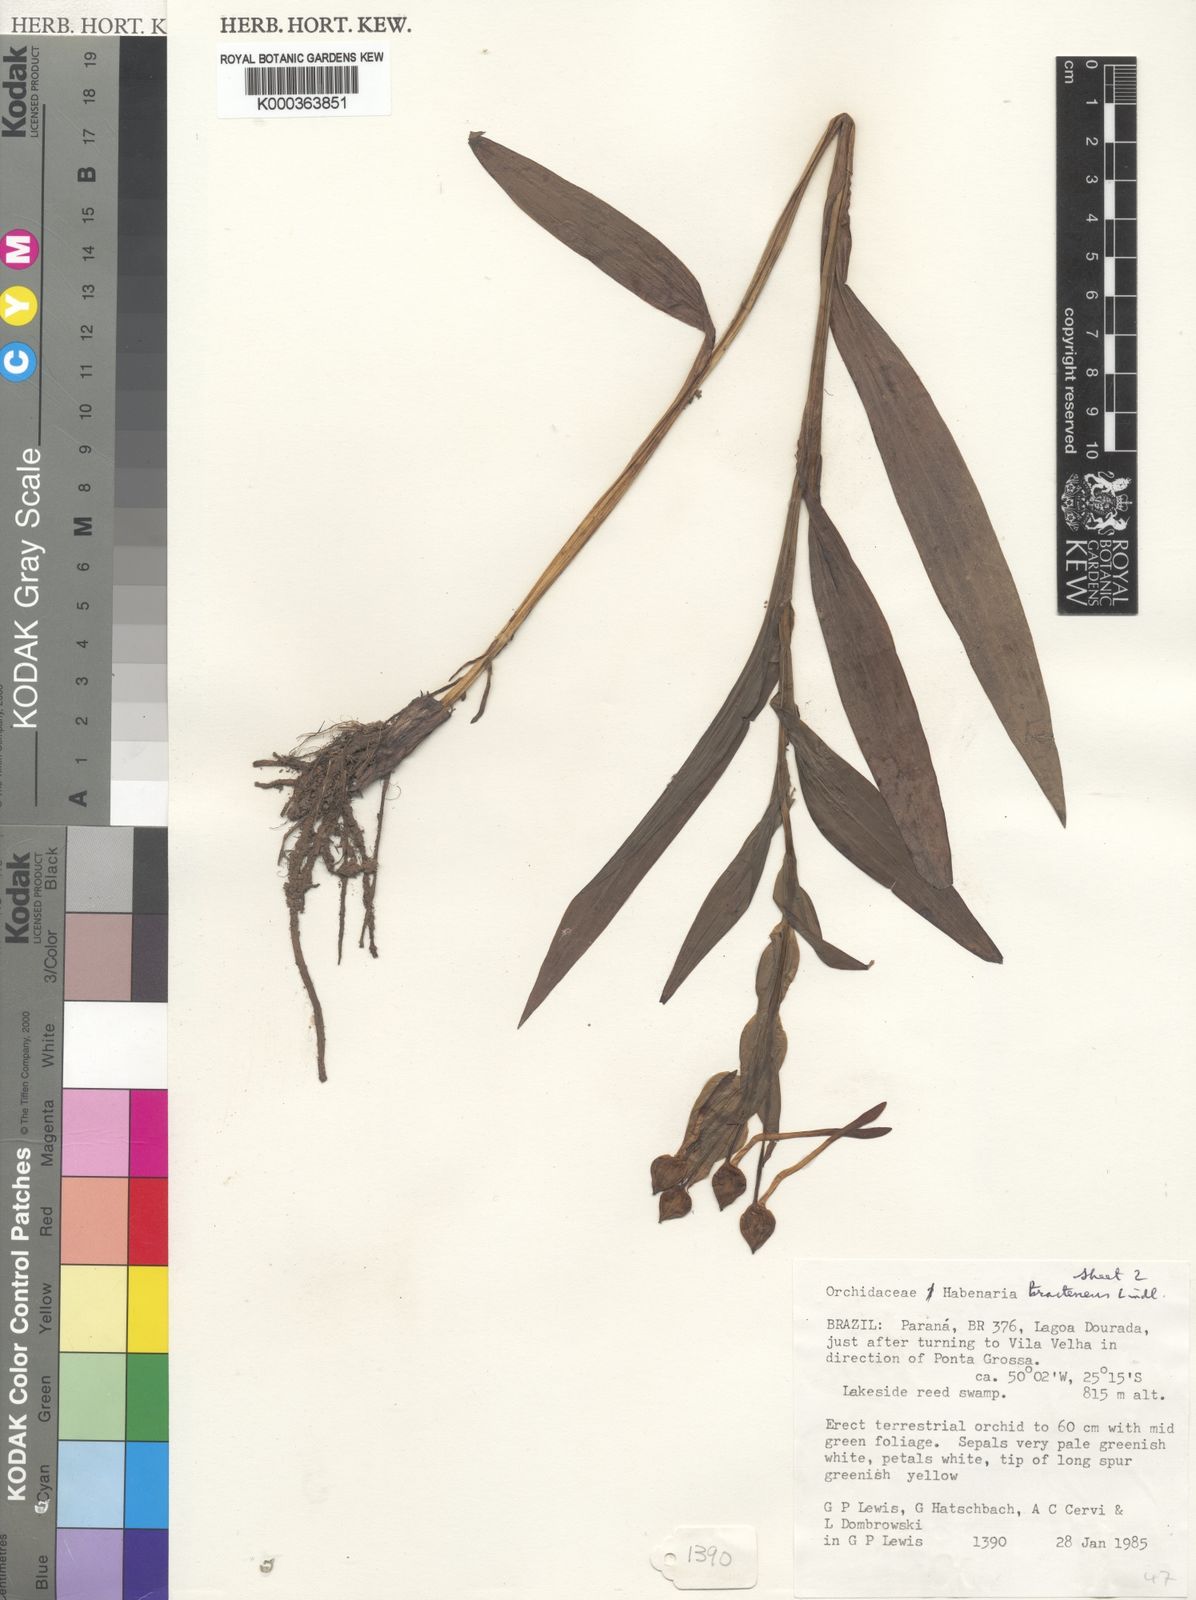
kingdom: Plantae
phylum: Tracheophyta
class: Liliopsida
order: Asparagales
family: Orchidaceae
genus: Habenaria
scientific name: Habenaria bractescens
